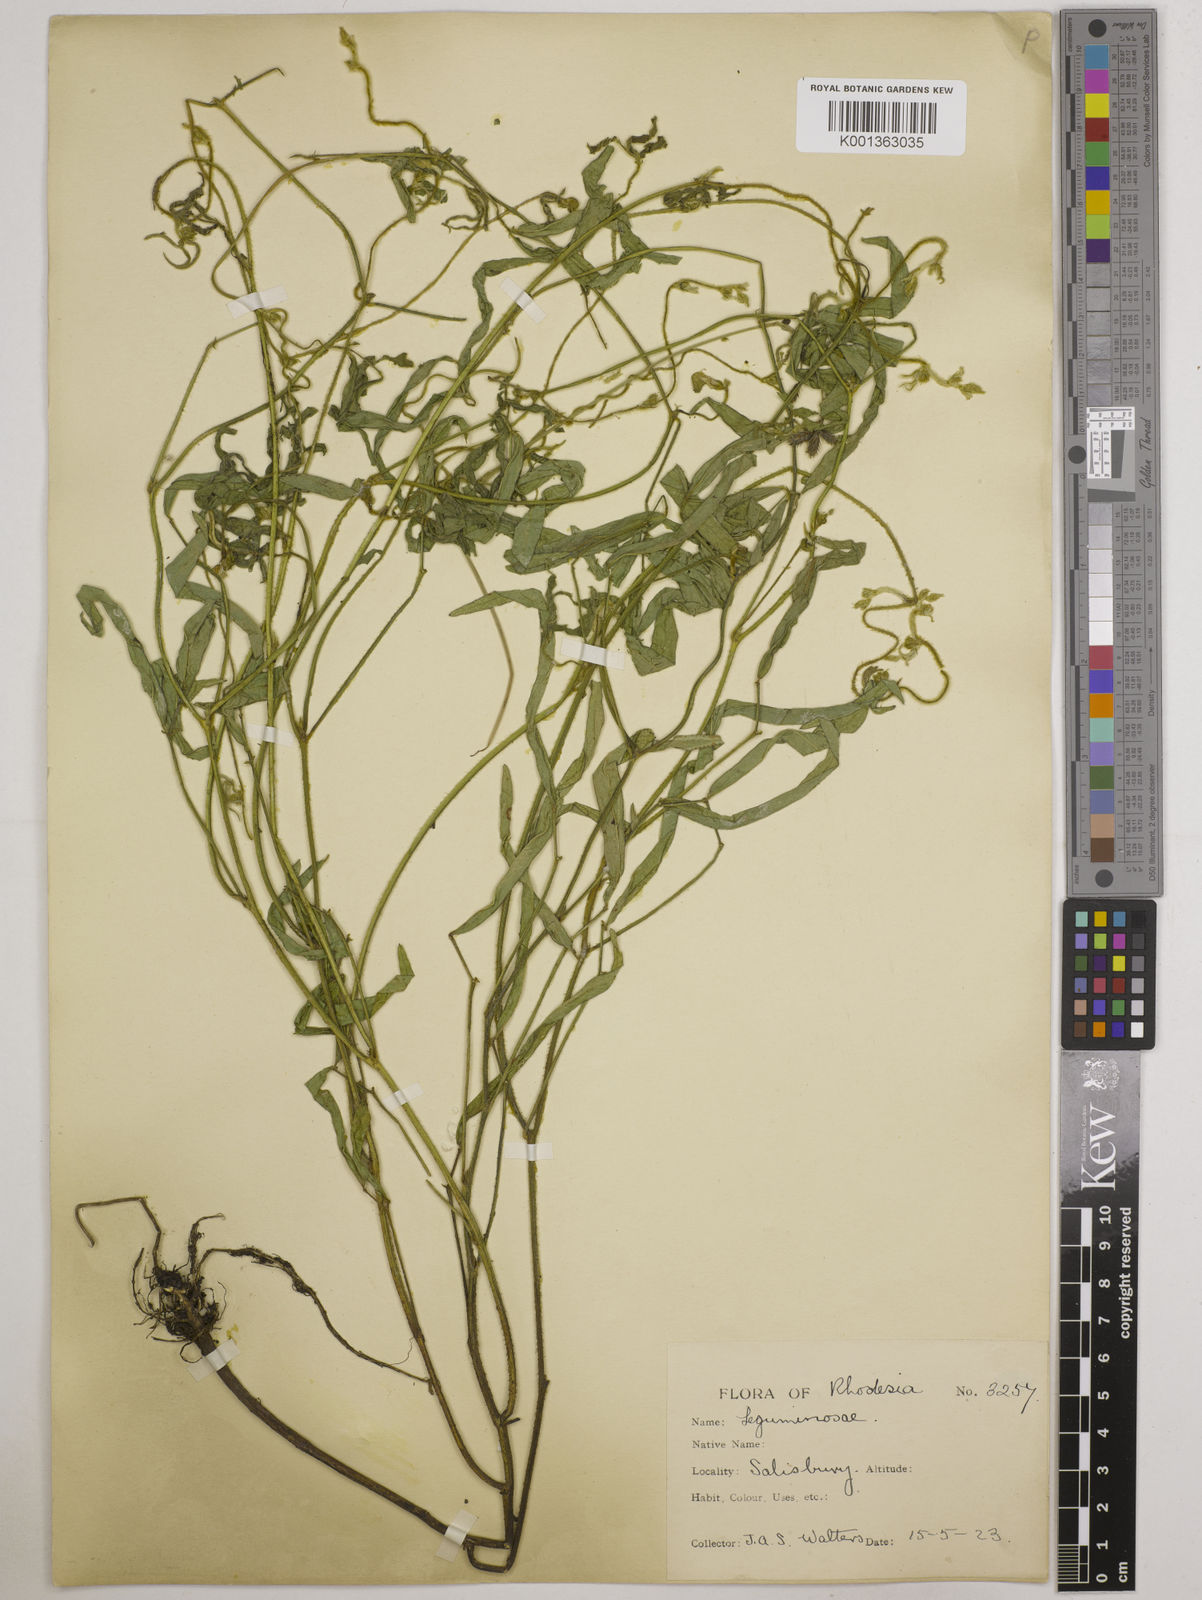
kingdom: Plantae
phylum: Tracheophyta
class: Magnoliopsida
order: Fabales
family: Fabaceae
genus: Vigna
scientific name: Vigna oblongifolia
